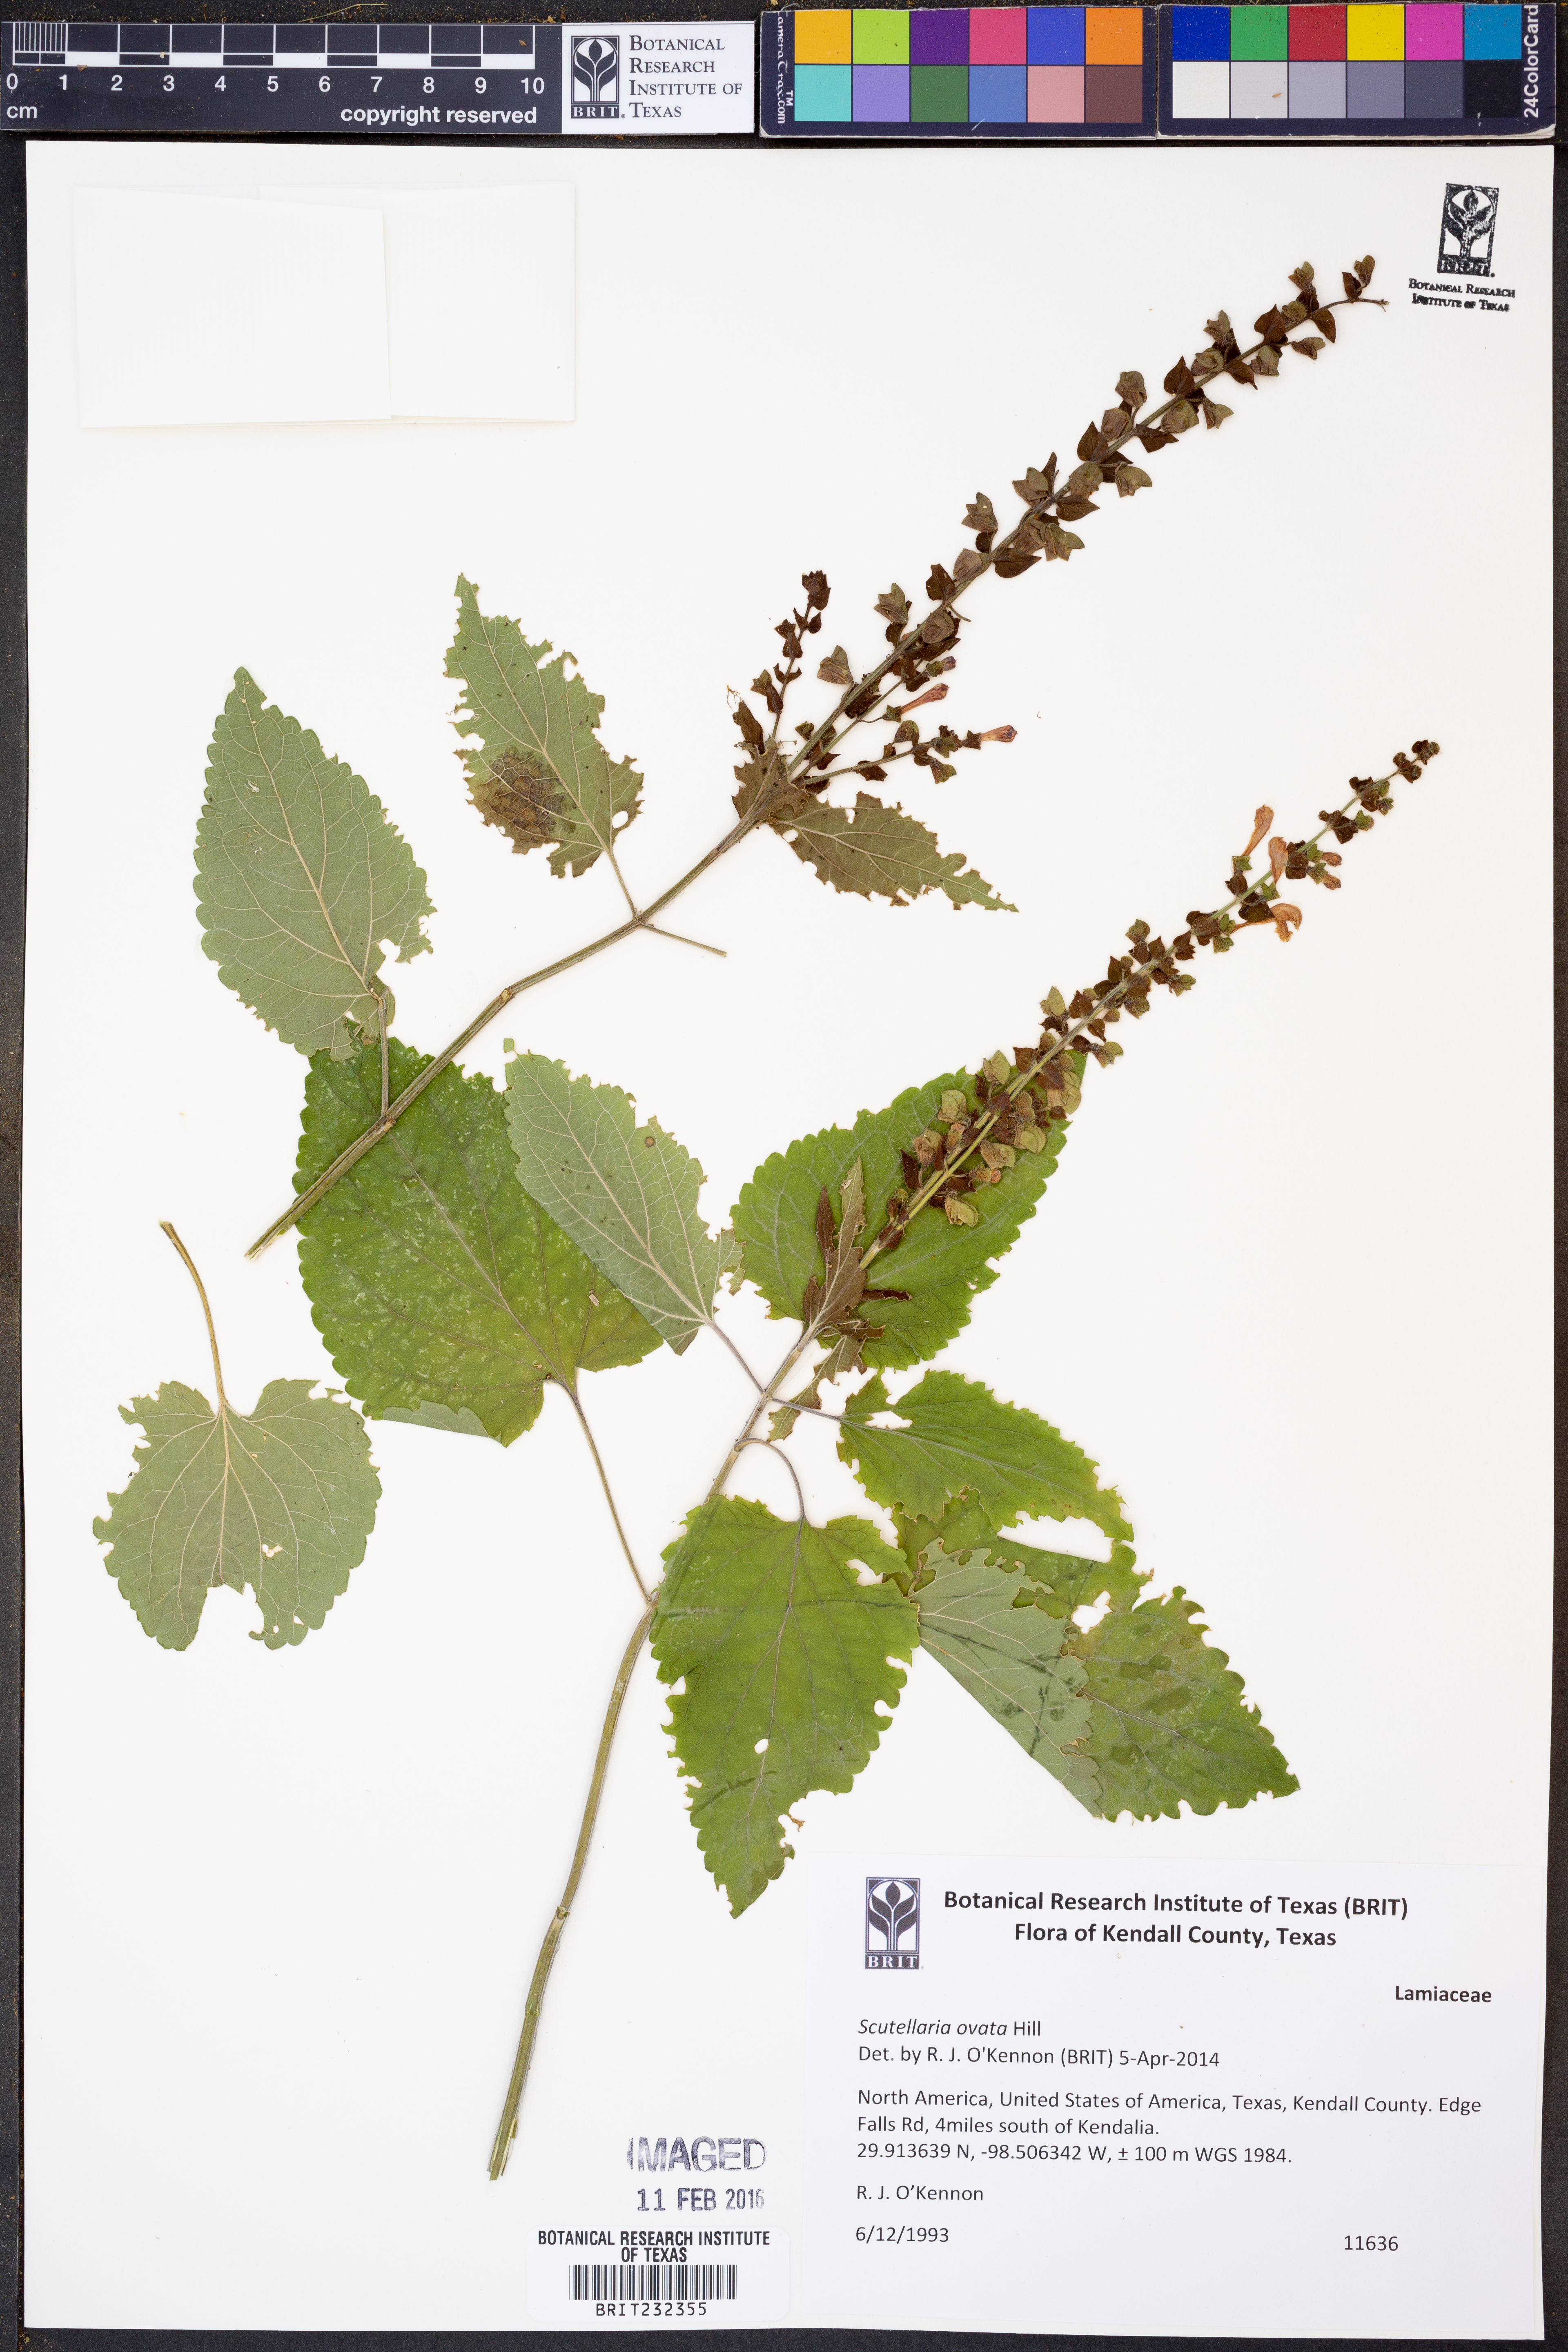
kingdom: Plantae
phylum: Tracheophyta
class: Magnoliopsida
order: Lamiales
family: Lamiaceae
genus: Scutellaria
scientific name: Scutellaria ovata
